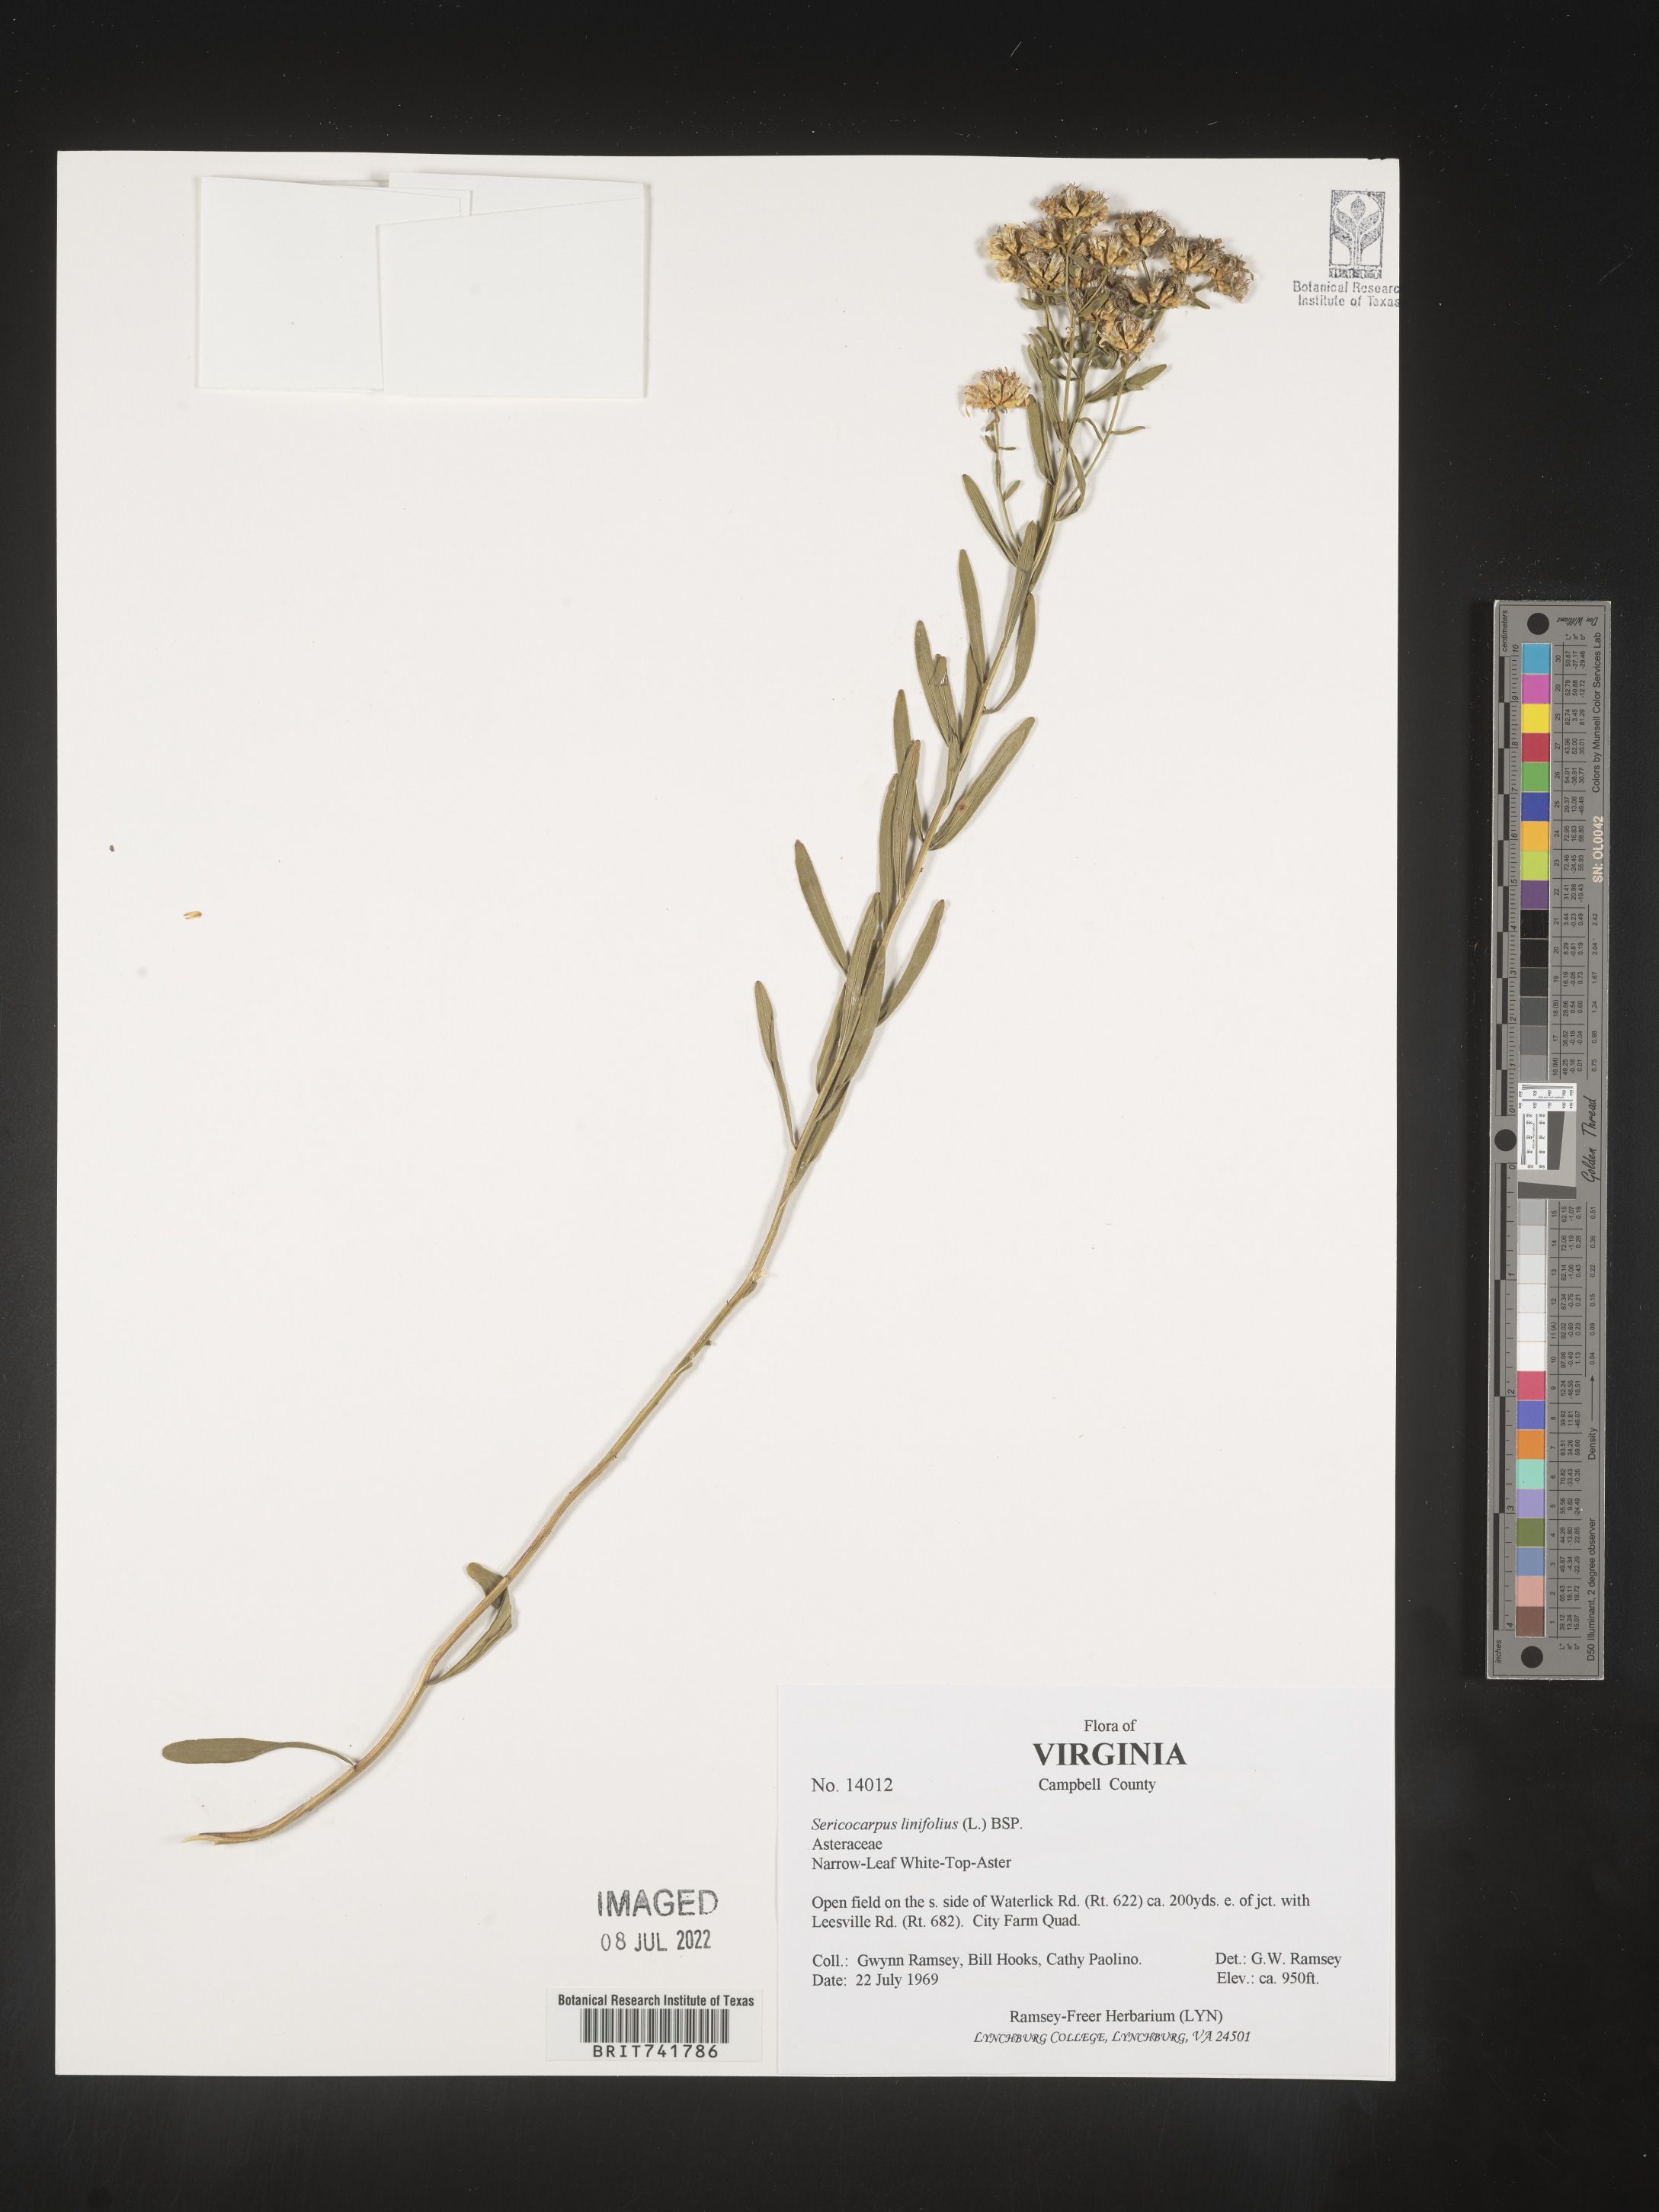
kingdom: Plantae
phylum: Tracheophyta
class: Magnoliopsida
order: Asterales
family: Asteraceae
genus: Sericocarpus
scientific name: Sericocarpus linifolius
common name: Narrow-leaf aster
